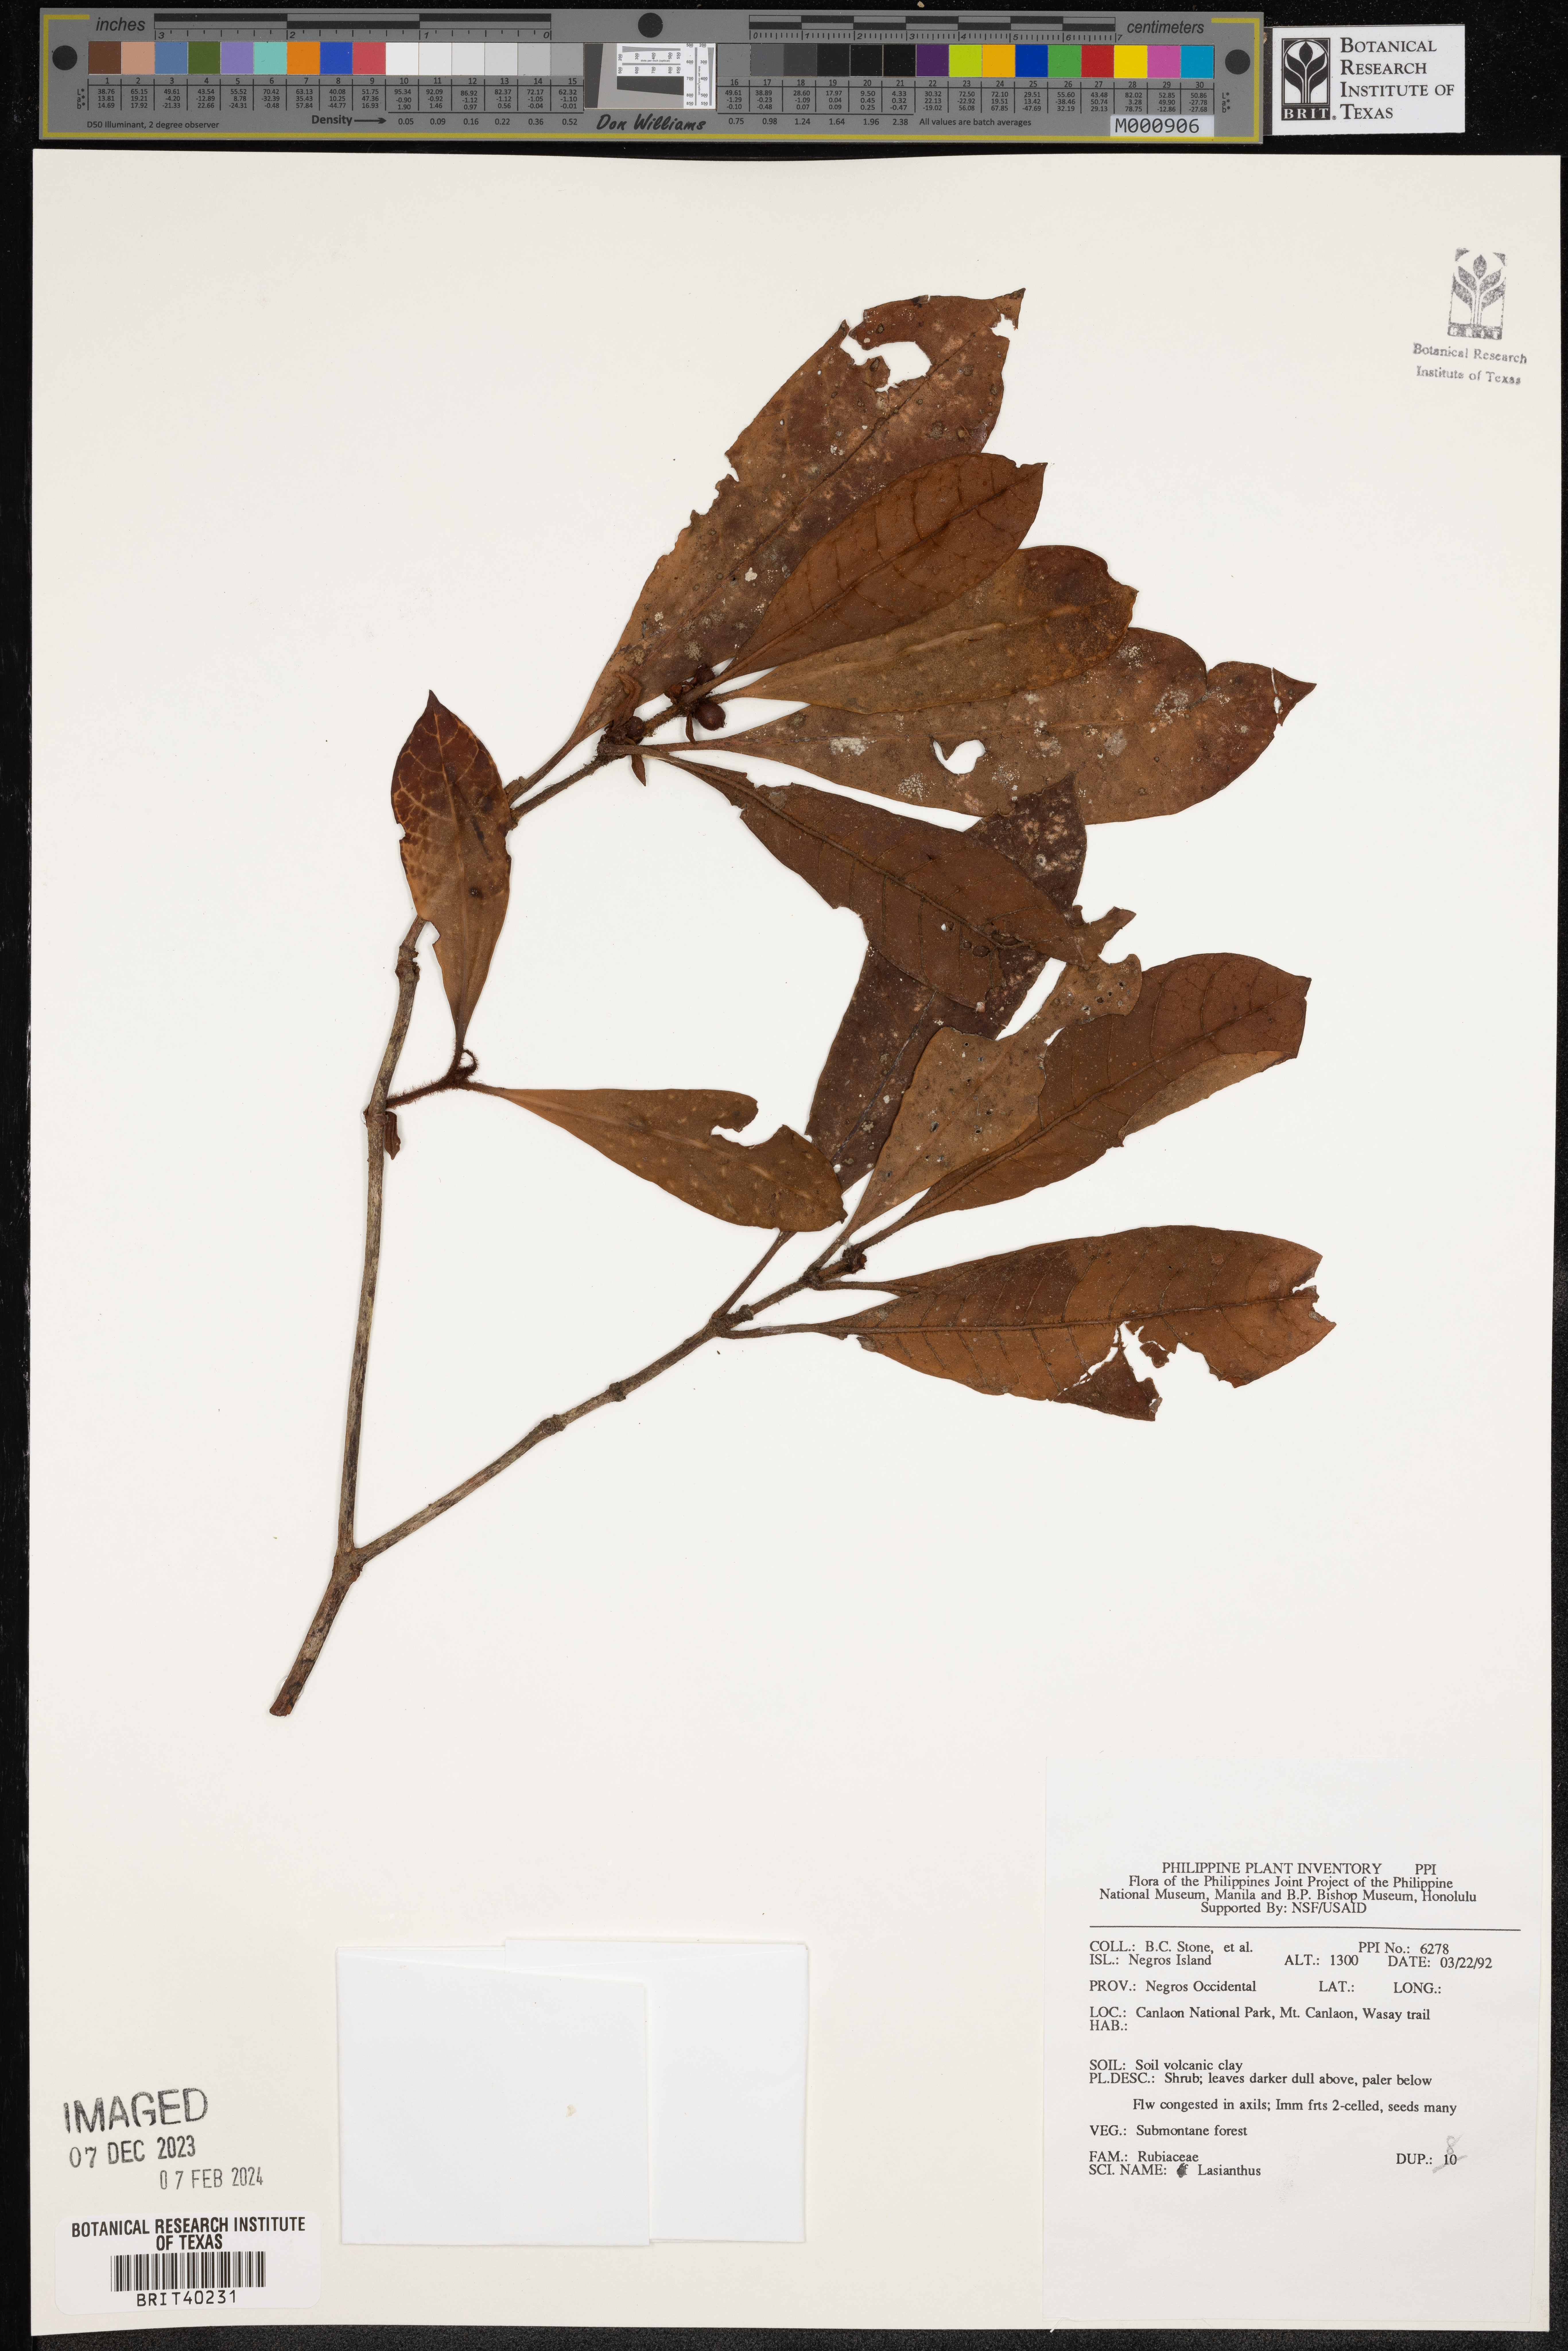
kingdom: Plantae
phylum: Tracheophyta
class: Magnoliopsida
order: Gentianales
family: Rubiaceae
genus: Lasianthus
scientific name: Lasianthus
